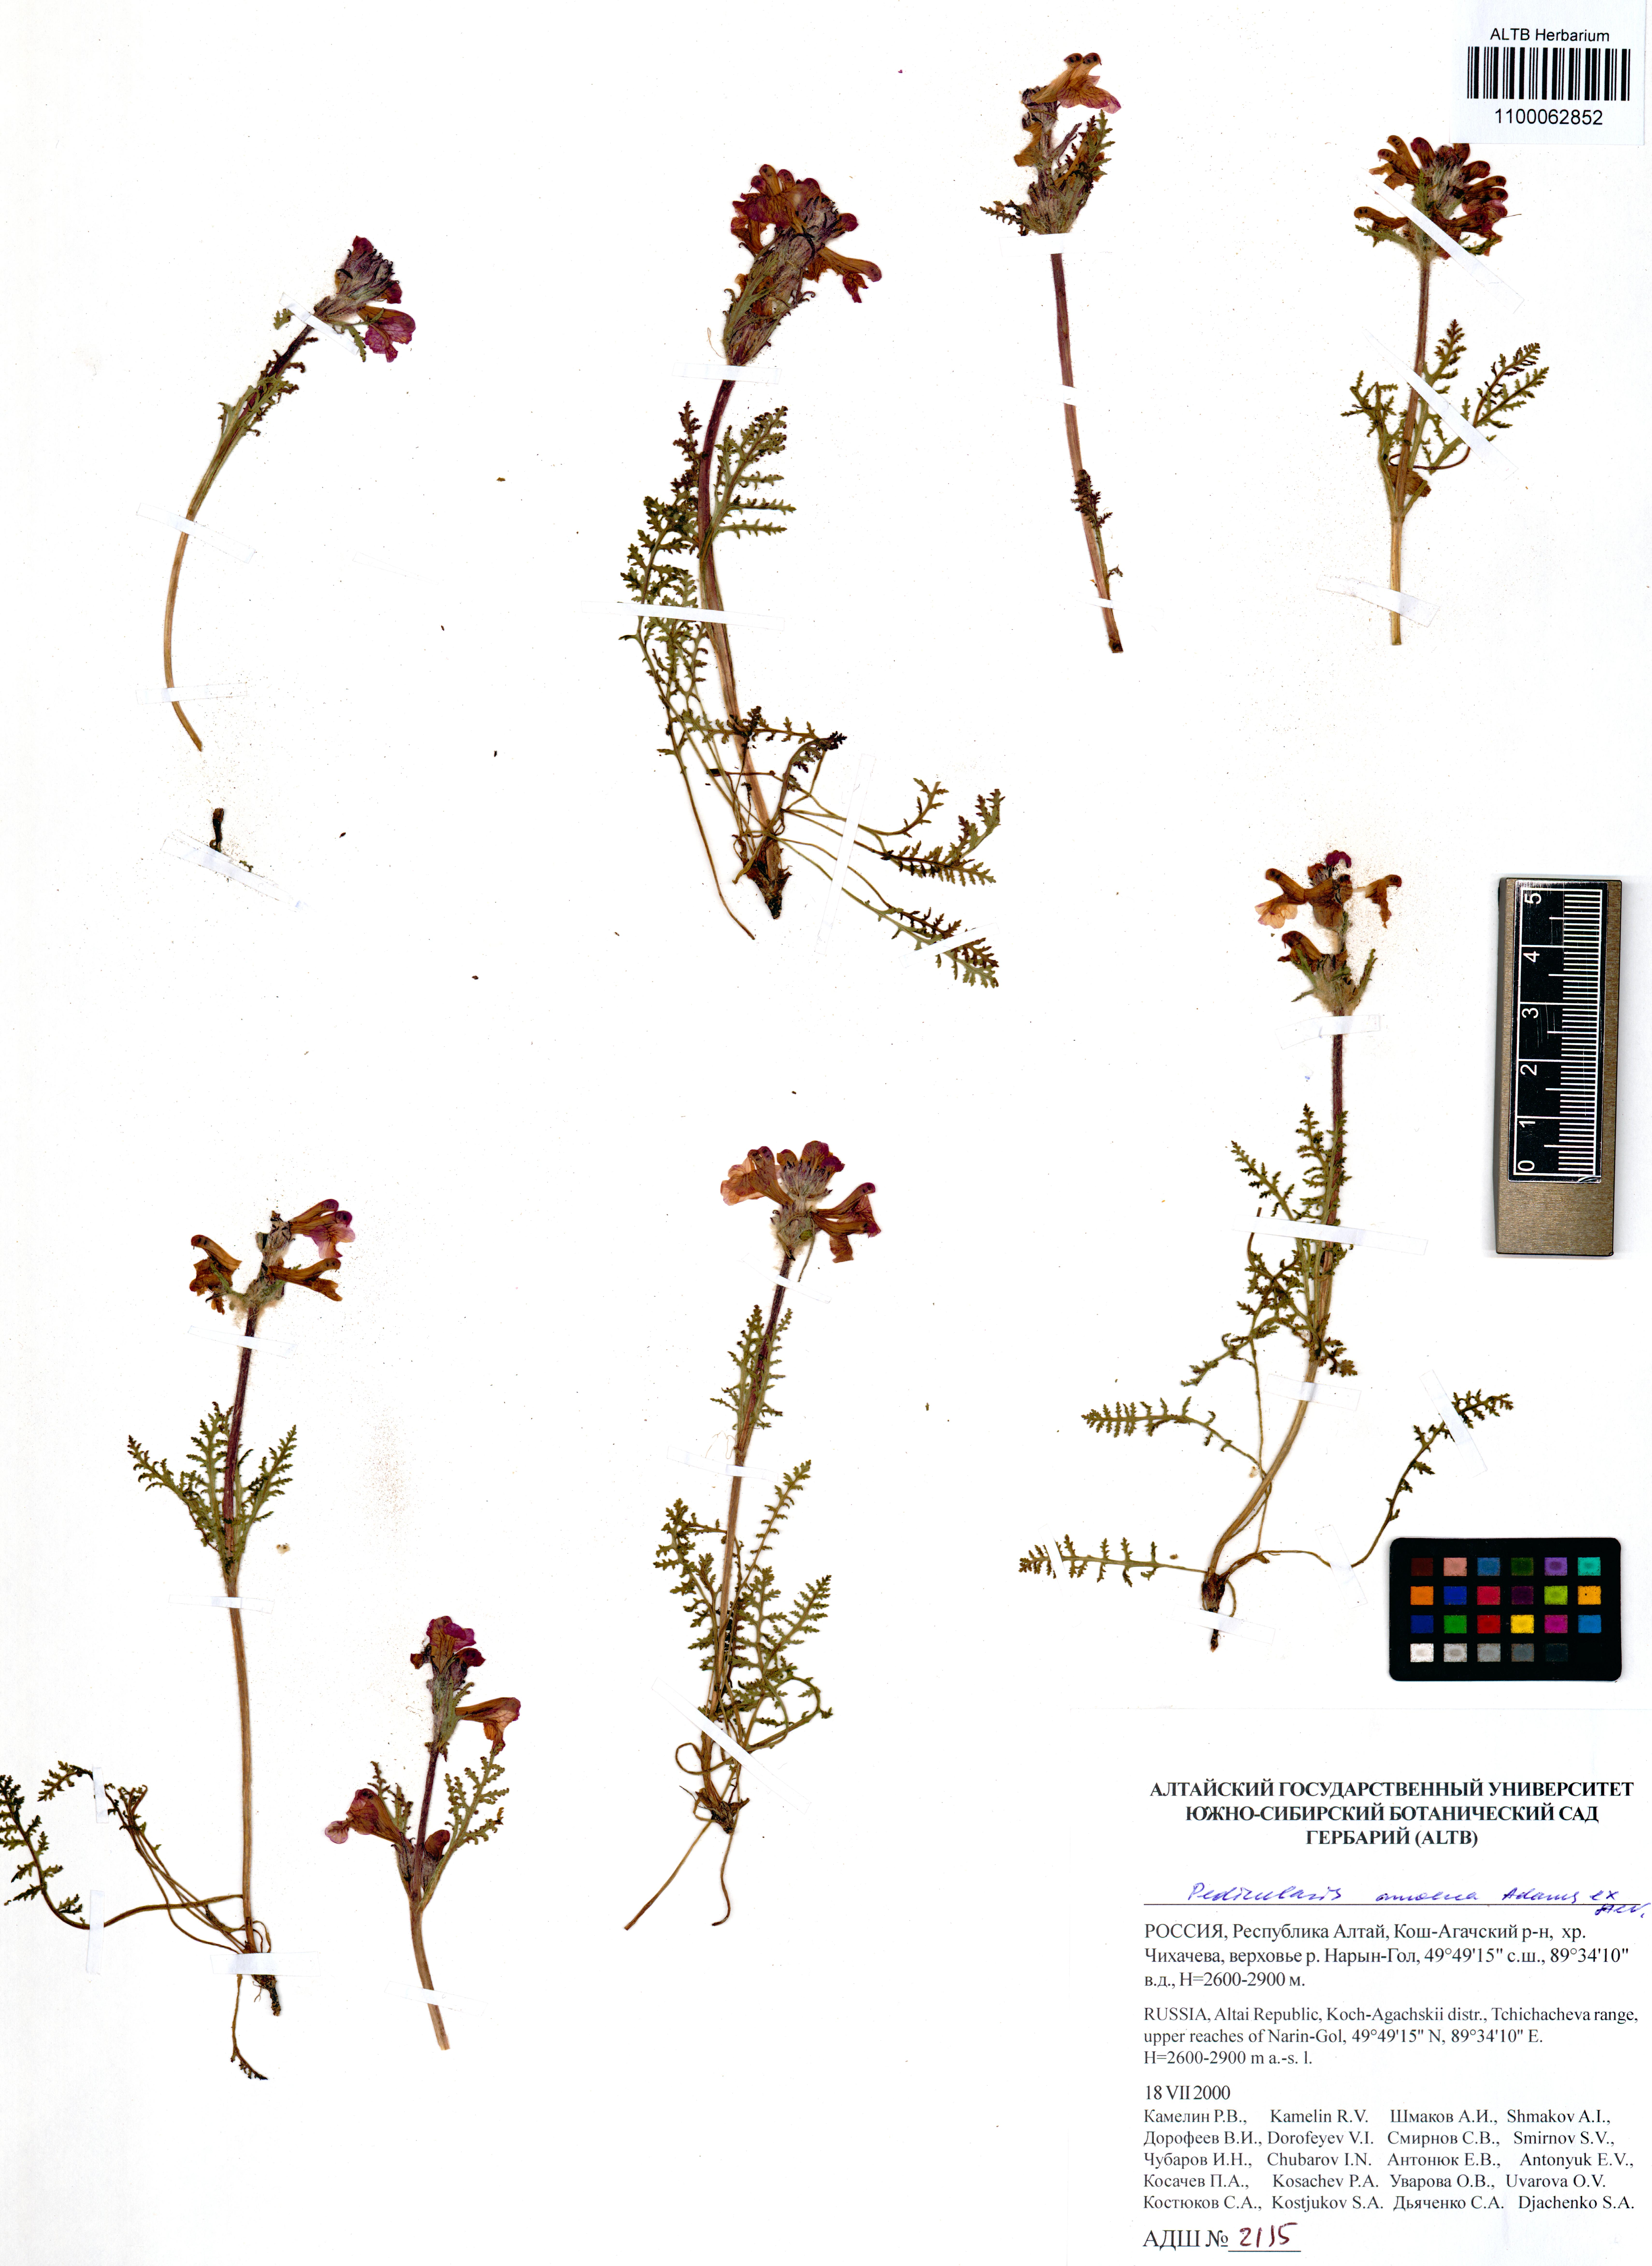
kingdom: Plantae
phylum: Tracheophyta
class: Magnoliopsida
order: Lamiales
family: Orobanchaceae
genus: Pedicularis
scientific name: Pedicularis amoena
